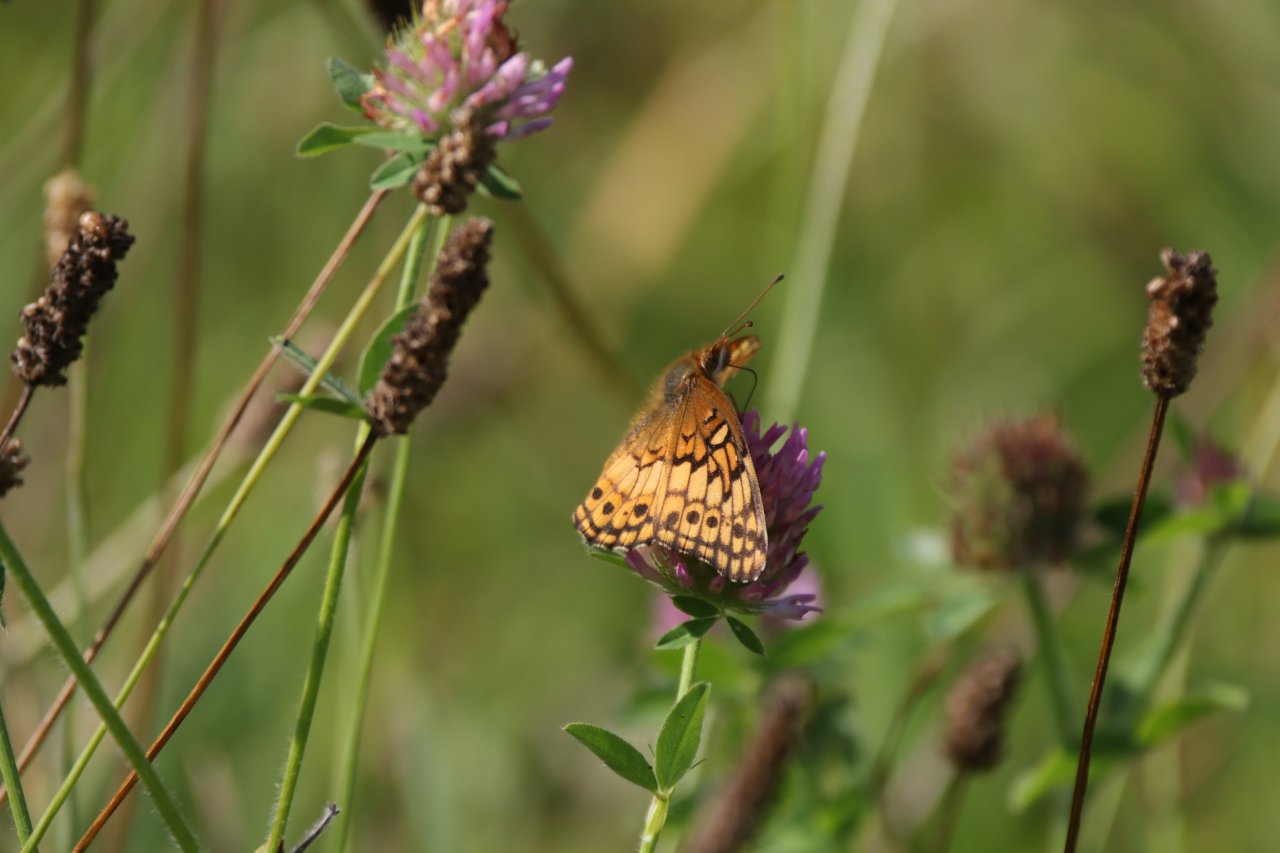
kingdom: Animalia
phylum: Arthropoda
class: Insecta
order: Lepidoptera
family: Nymphalidae
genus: Euptoieta
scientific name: Euptoieta claudia
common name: Variegated Fritillary
